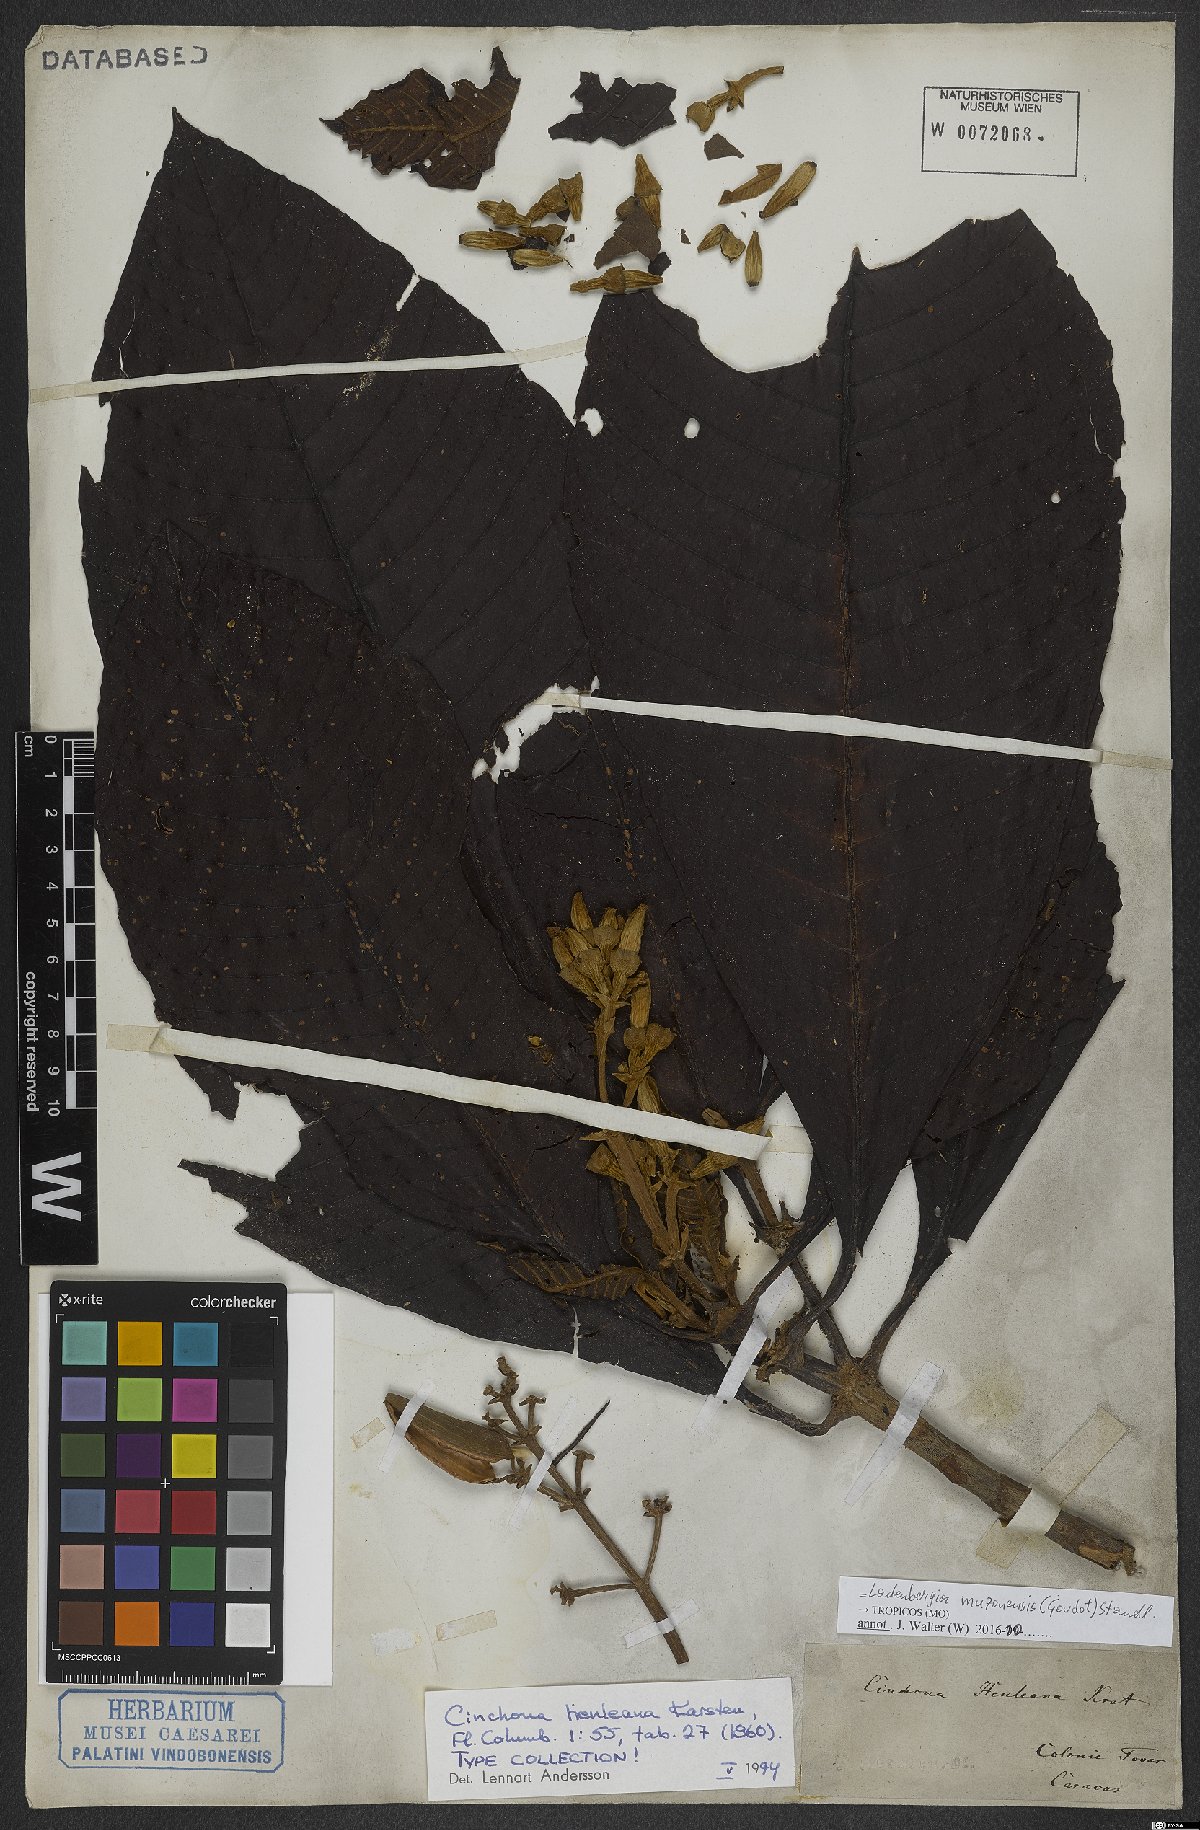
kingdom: Plantae
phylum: Tracheophyta
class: Magnoliopsida
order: Gentianales
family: Rubiaceae
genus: Ladenbergia
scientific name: Ladenbergia muzonensis
